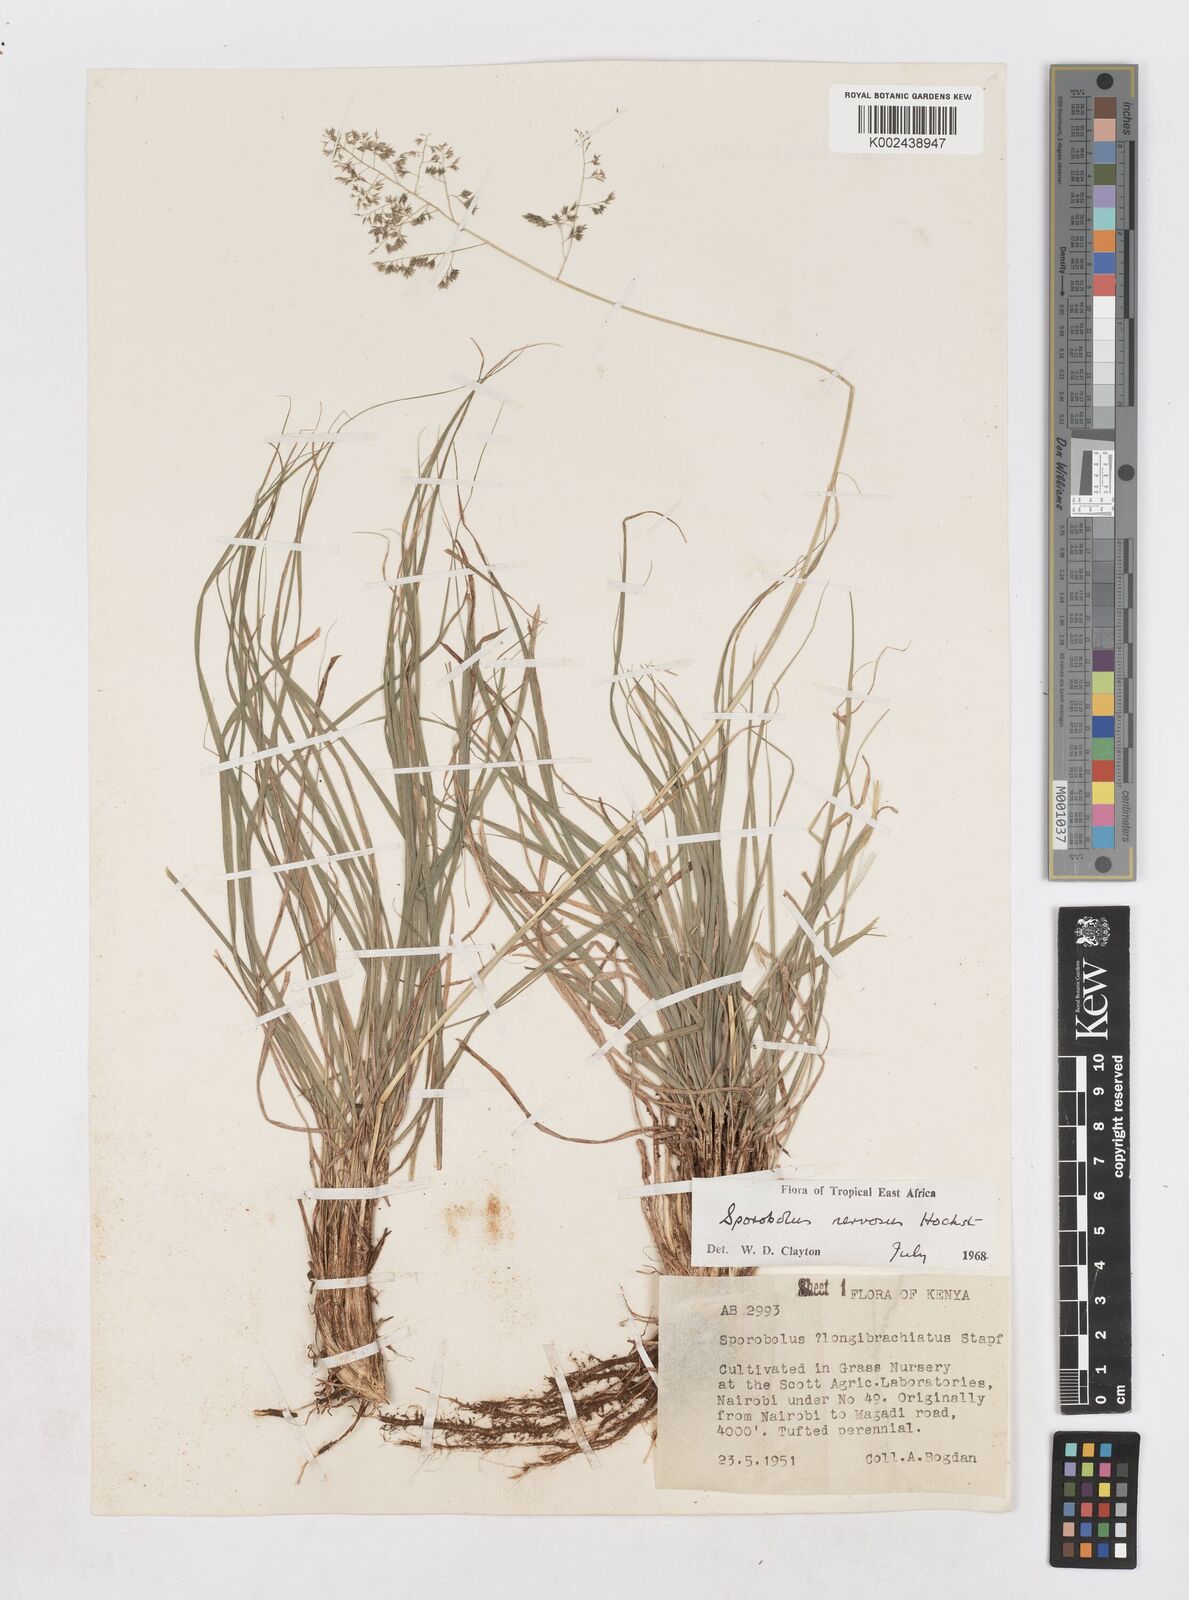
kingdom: Plantae
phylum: Tracheophyta
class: Liliopsida
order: Poales
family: Poaceae
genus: Sporobolus
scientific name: Sporobolus nervosus
